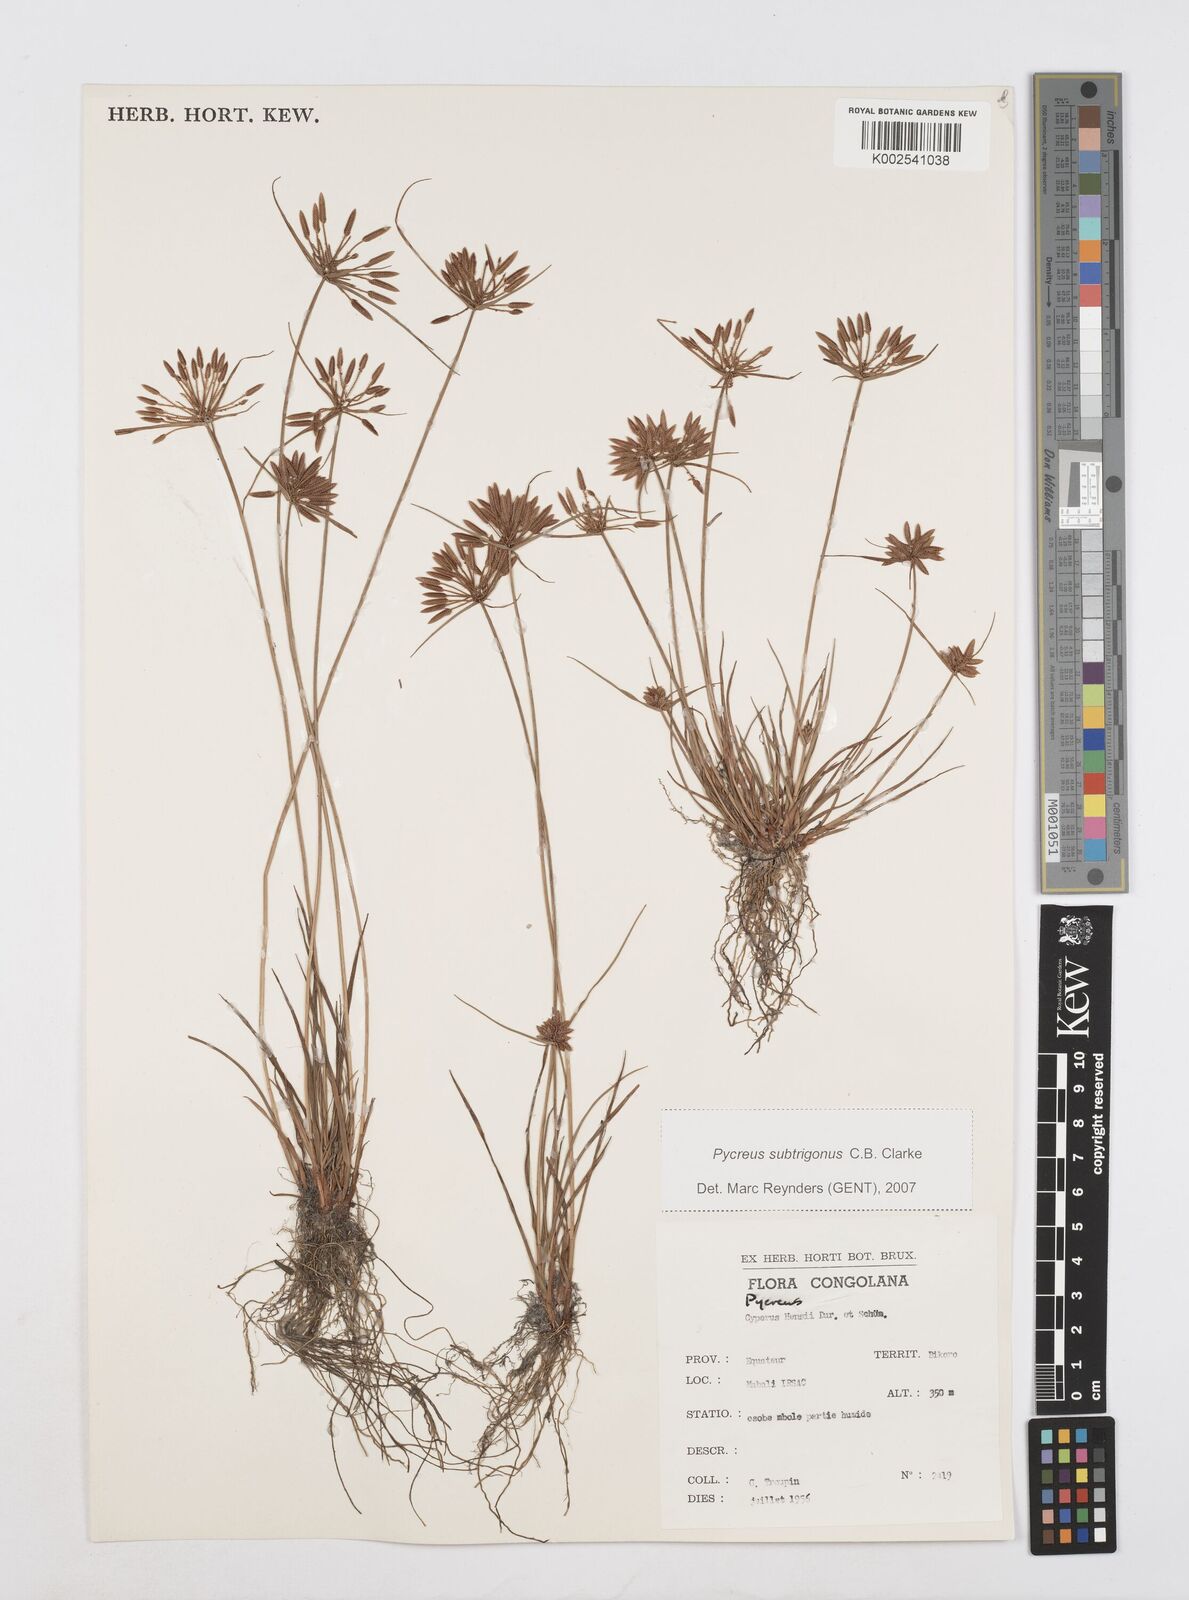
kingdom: Plantae
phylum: Tracheophyta
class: Liliopsida
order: Poales
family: Cyperaceae
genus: Cyperus
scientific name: Cyperus
